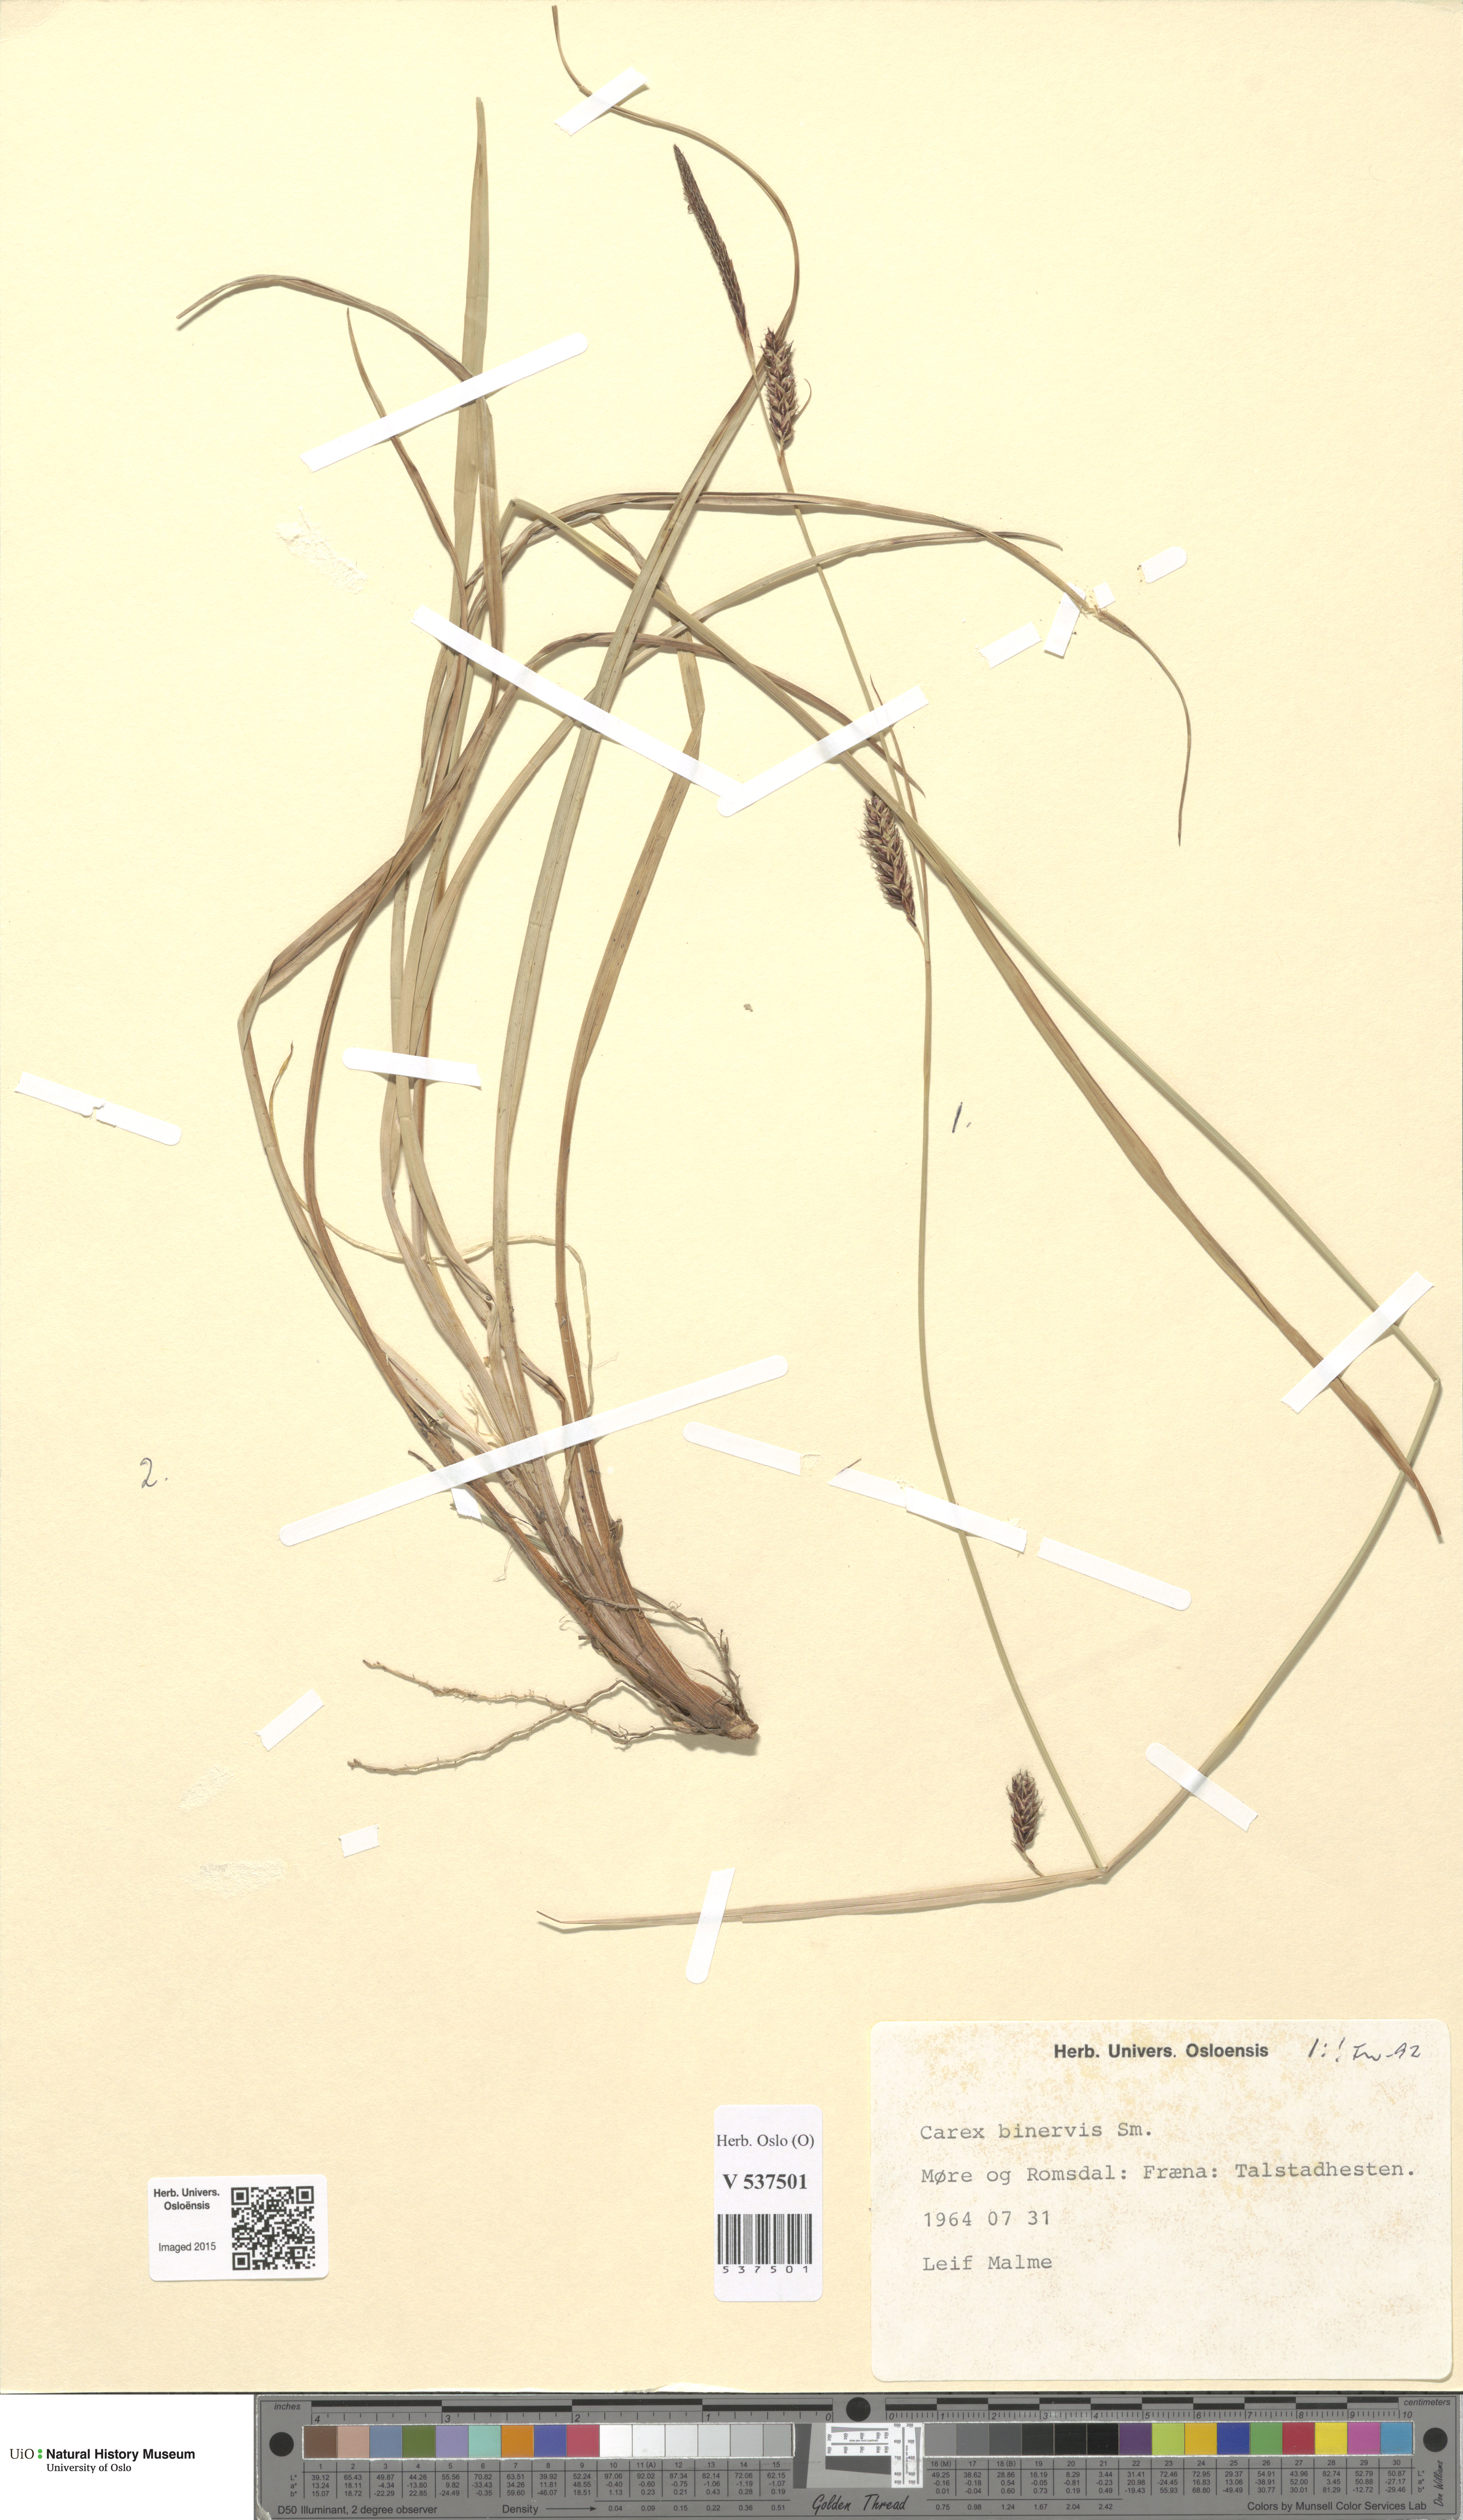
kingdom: Plantae
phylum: Tracheophyta
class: Liliopsida
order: Poales
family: Cyperaceae
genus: Carex
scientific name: Carex binervis
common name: Green-ribbed sedge
